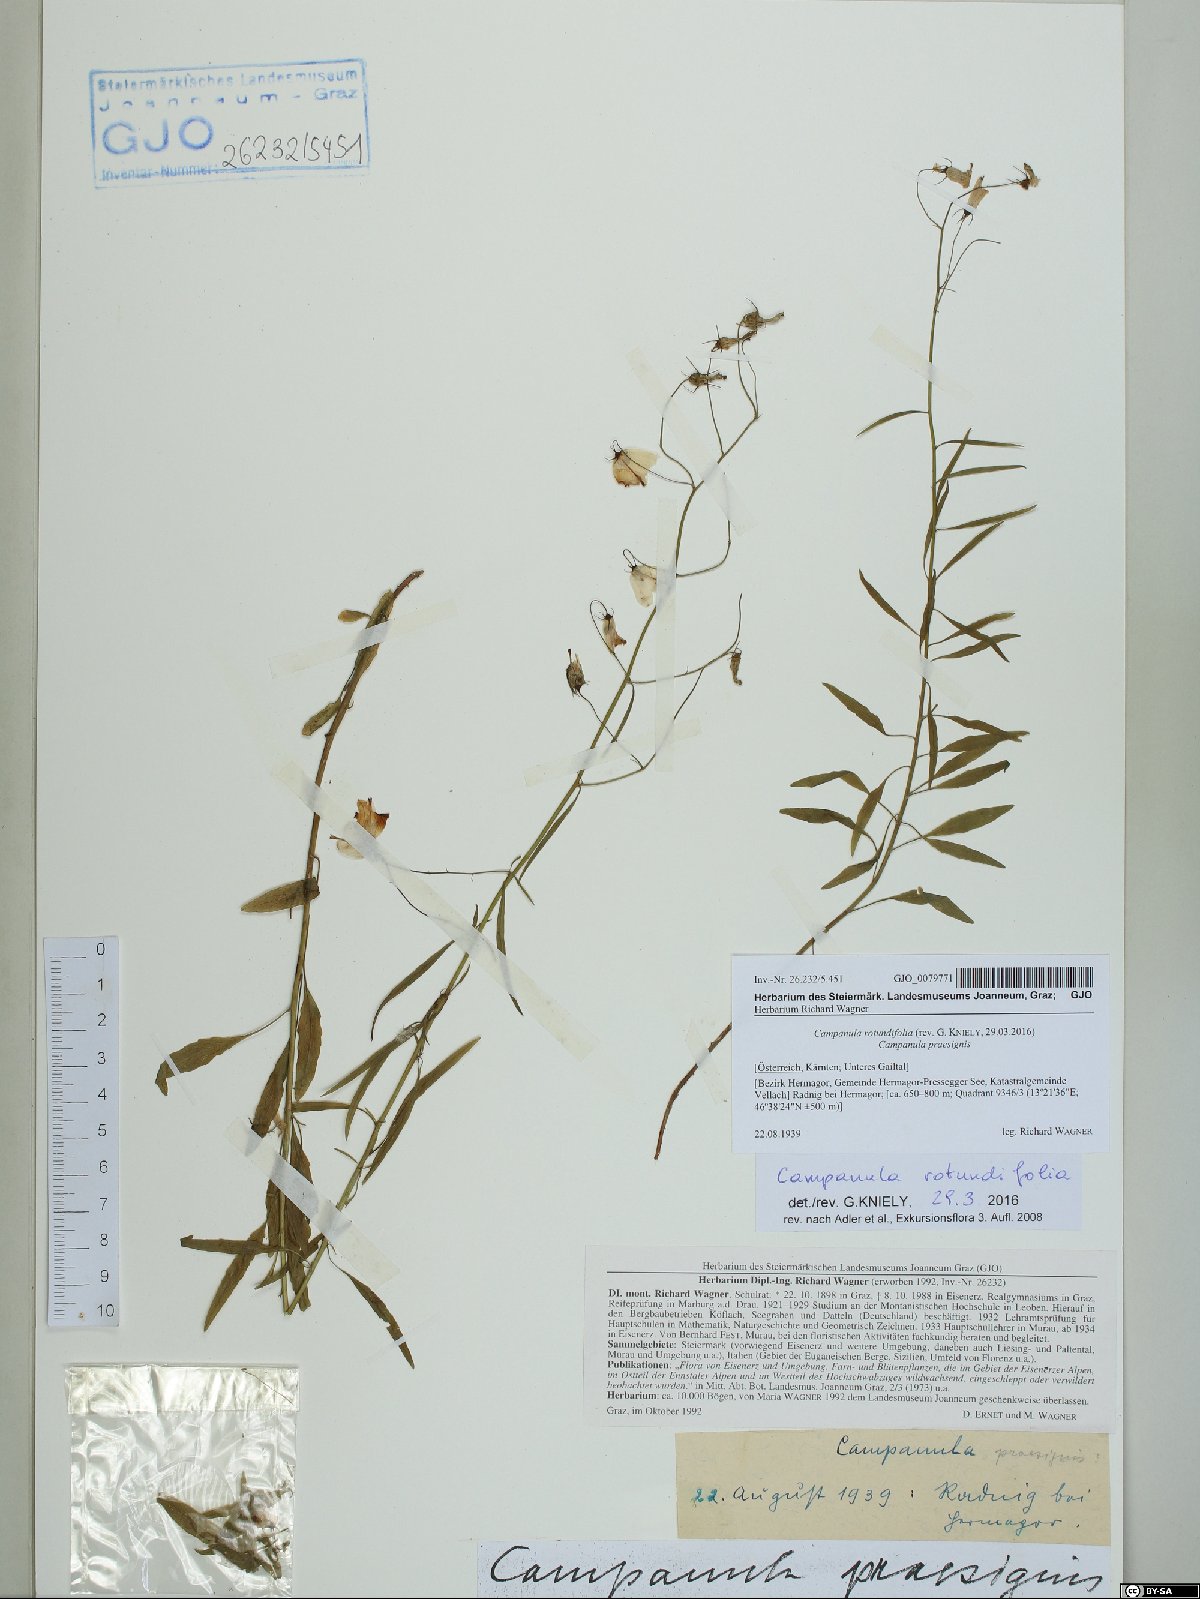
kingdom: Plantae
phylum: Tracheophyta
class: Magnoliopsida
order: Asterales
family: Campanulaceae
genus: Campanula
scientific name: Campanula rotundifolia
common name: Harebell
